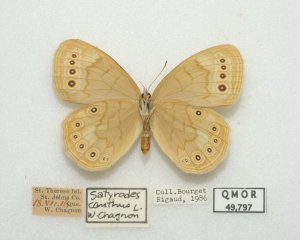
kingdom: Animalia
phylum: Arthropoda
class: Insecta
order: Lepidoptera
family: Nymphalidae
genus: Lethe
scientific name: Lethe eurydice
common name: Eyed Brown
